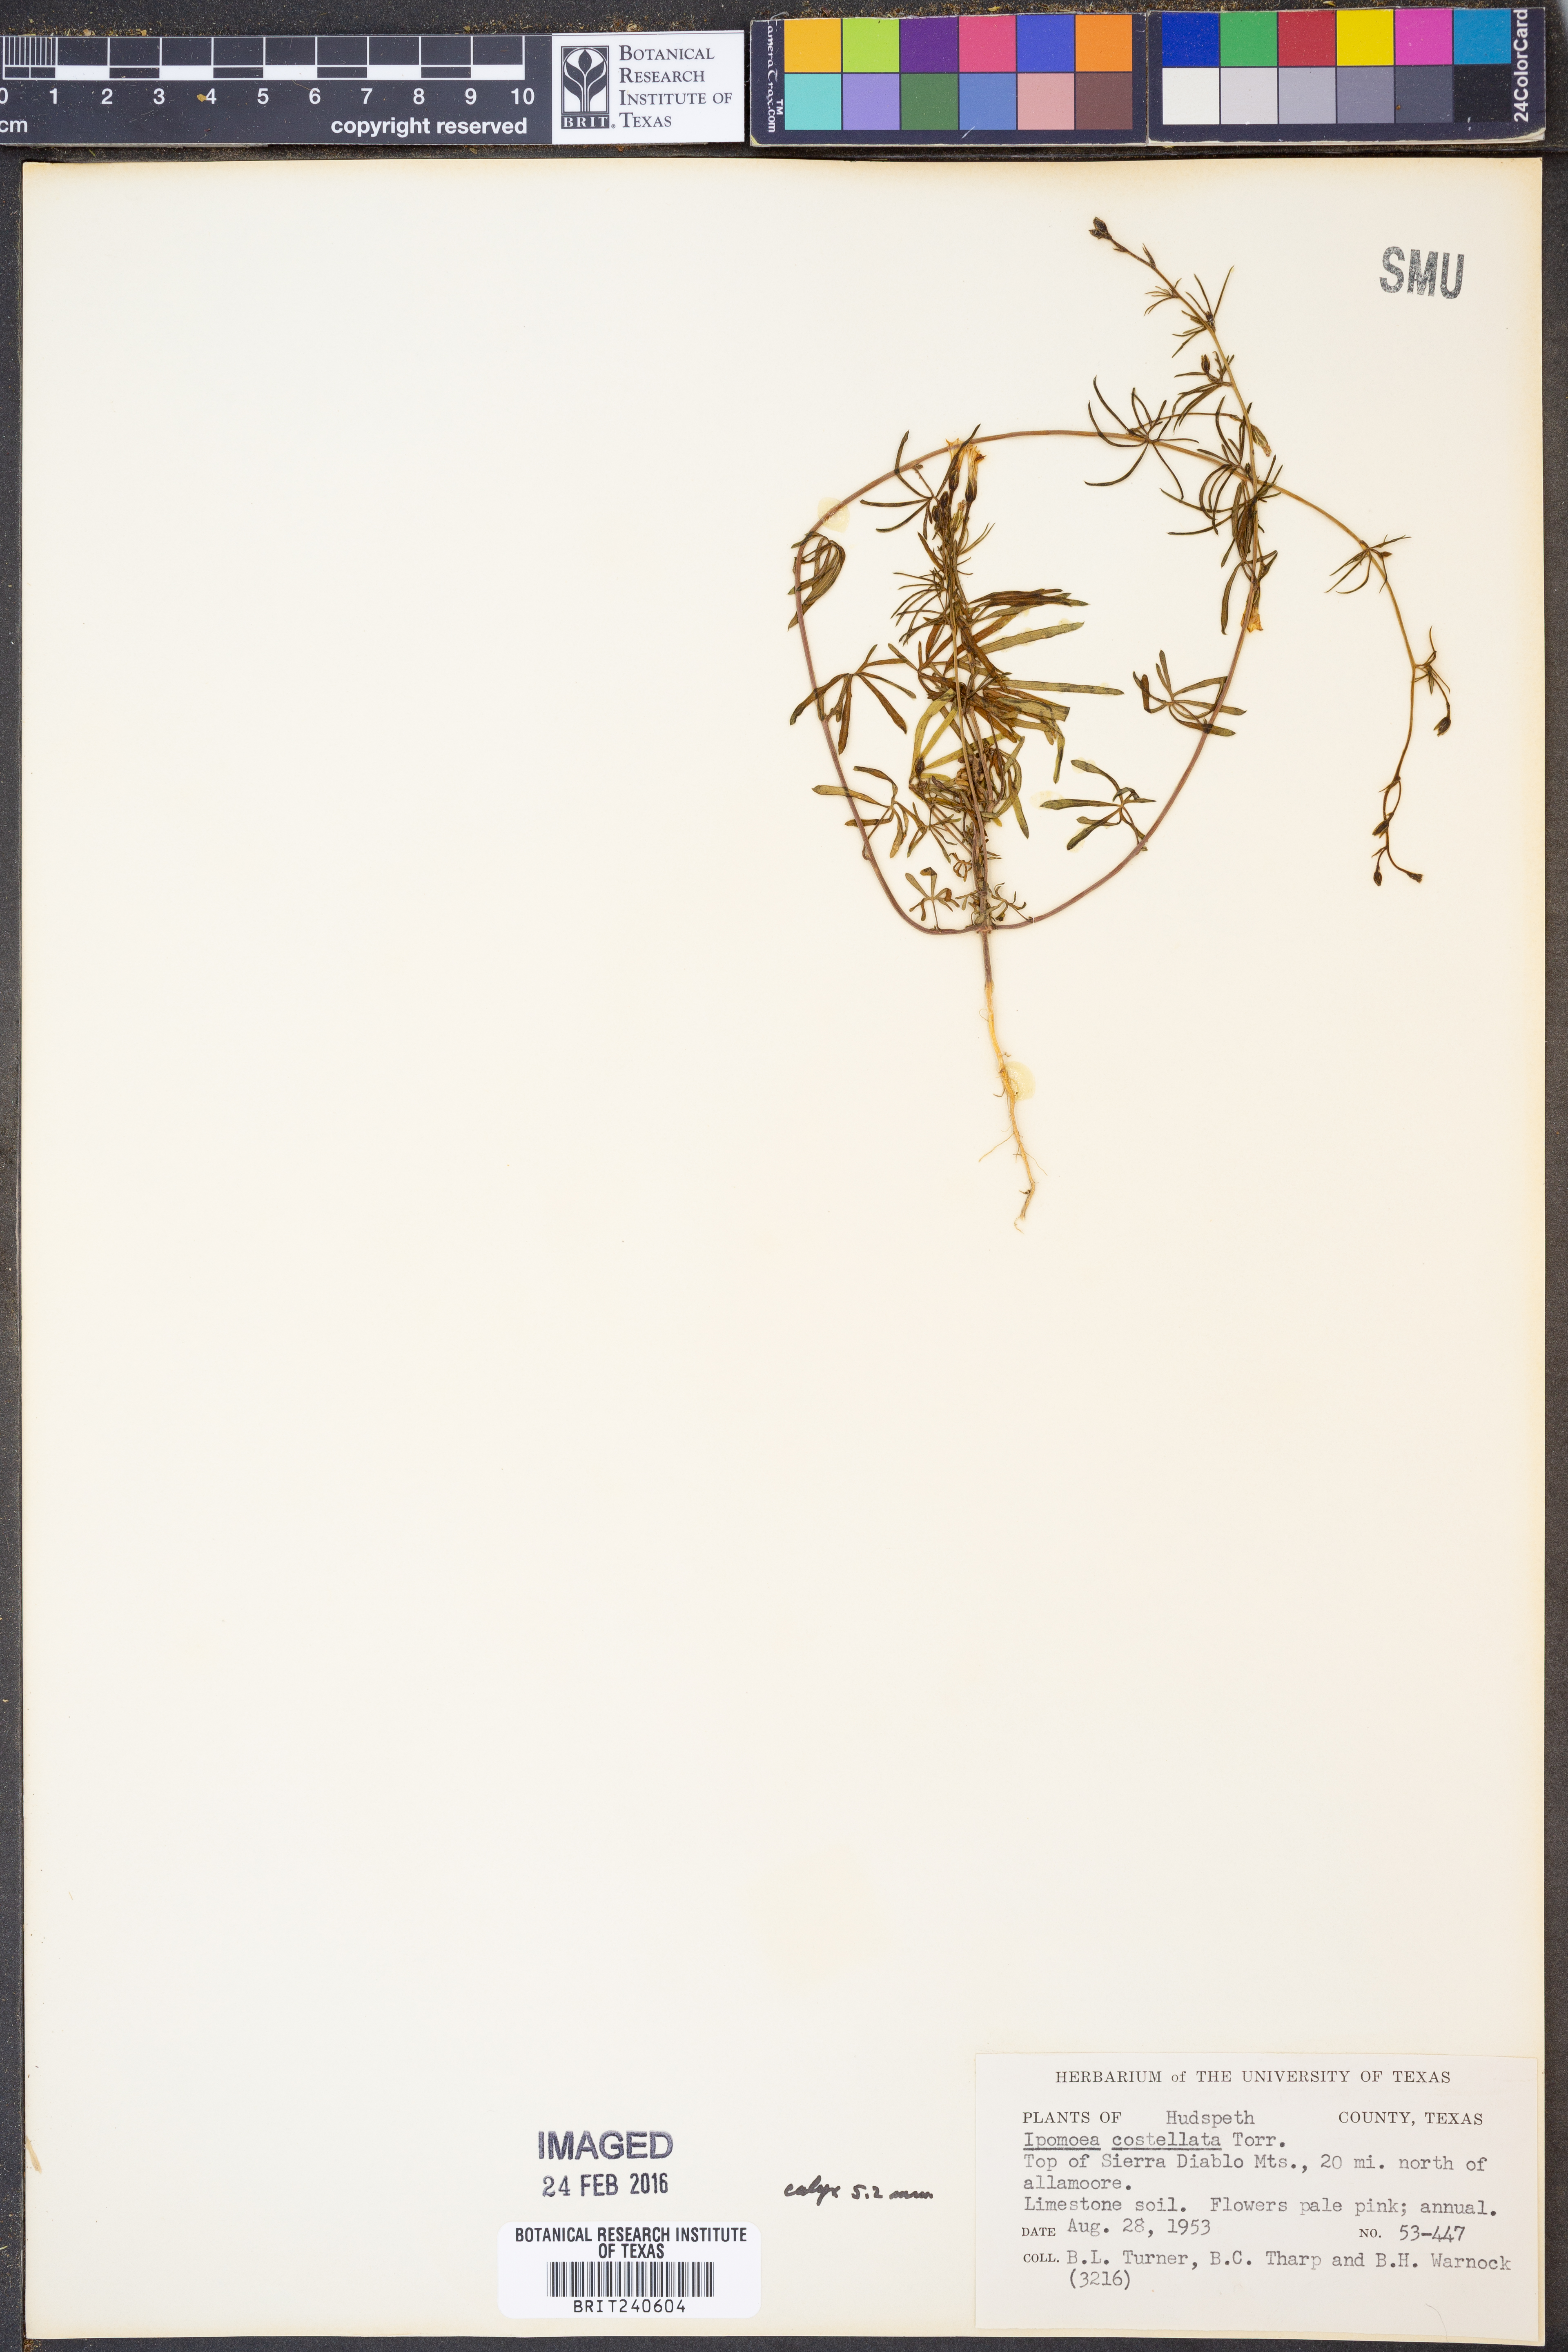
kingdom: Plantae
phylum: Tracheophyta
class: Magnoliopsida
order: Solanales
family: Convolvulaceae
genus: Ipomoea
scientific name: Ipomoea costellata
